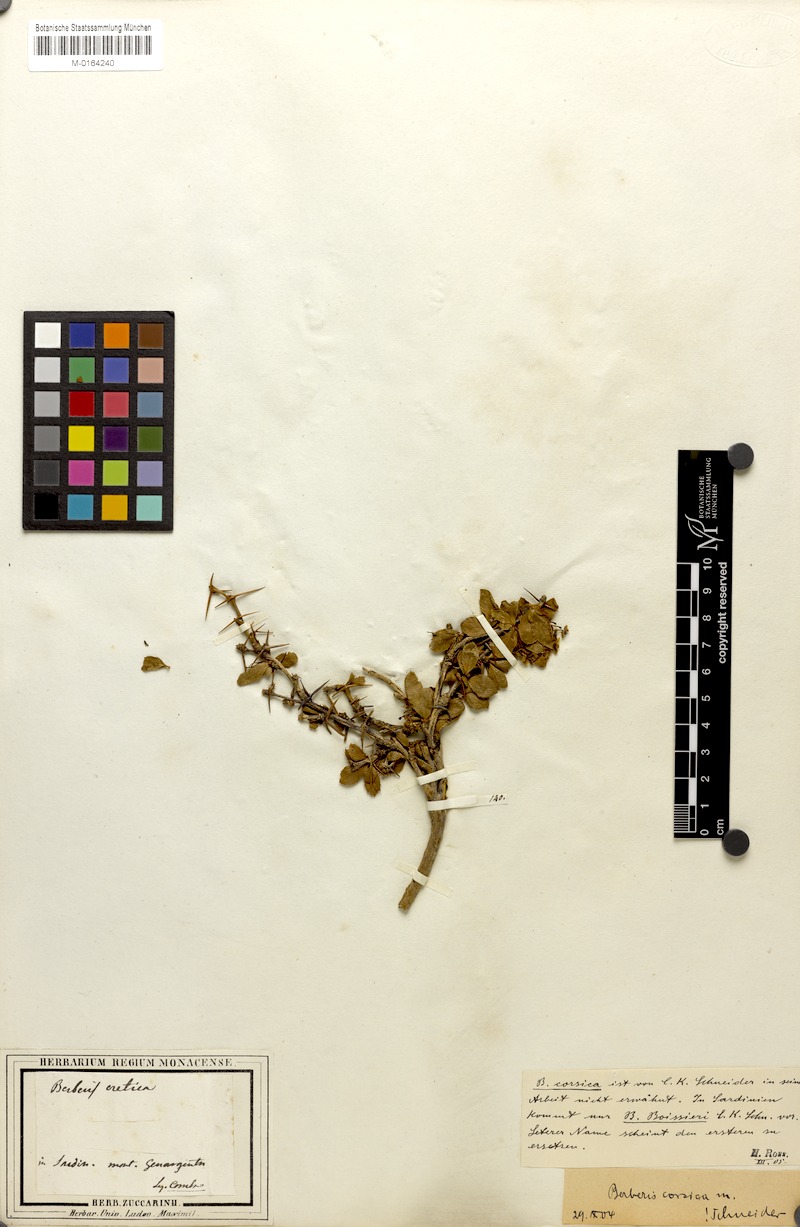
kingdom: Plantae
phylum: Tracheophyta
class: Magnoliopsida
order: Ranunculales
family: Berberidaceae
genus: Berberis
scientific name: Berberis aetnensis
